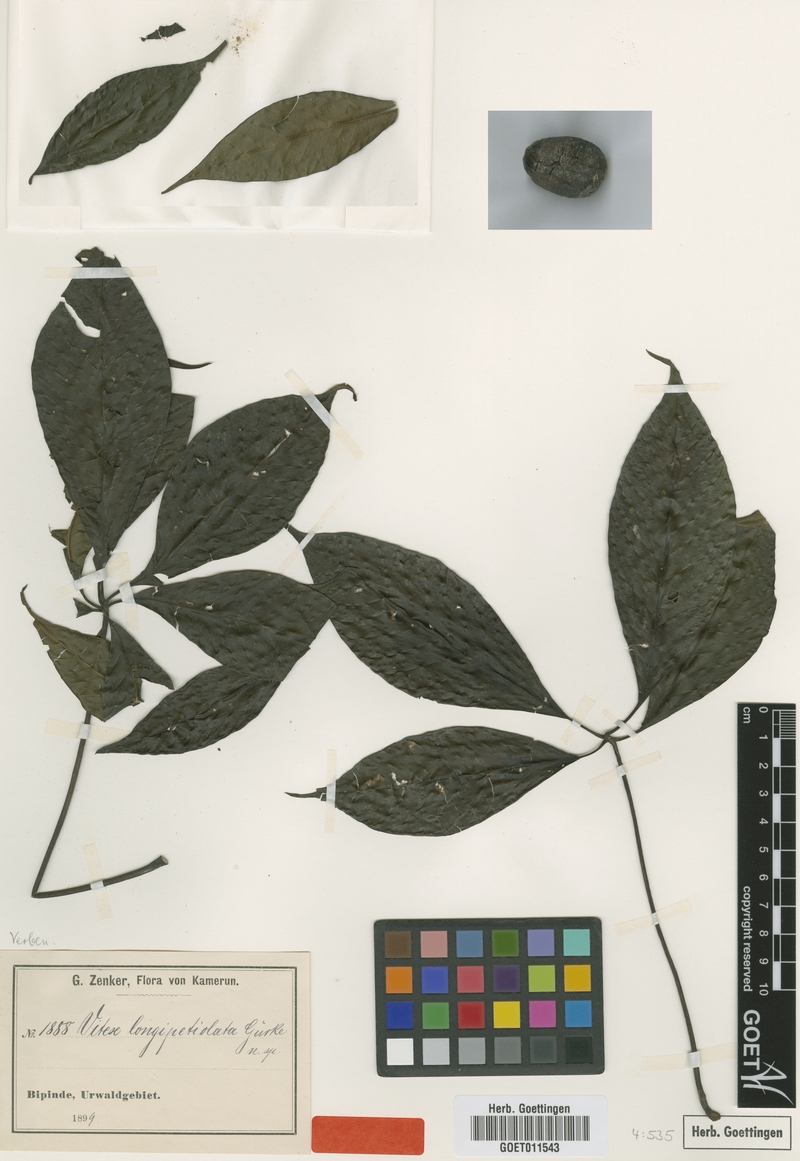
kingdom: Plantae
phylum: Tracheophyta
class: Magnoliopsida
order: Lamiales
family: Lamiaceae
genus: Vitex
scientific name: Vitex rivularis
